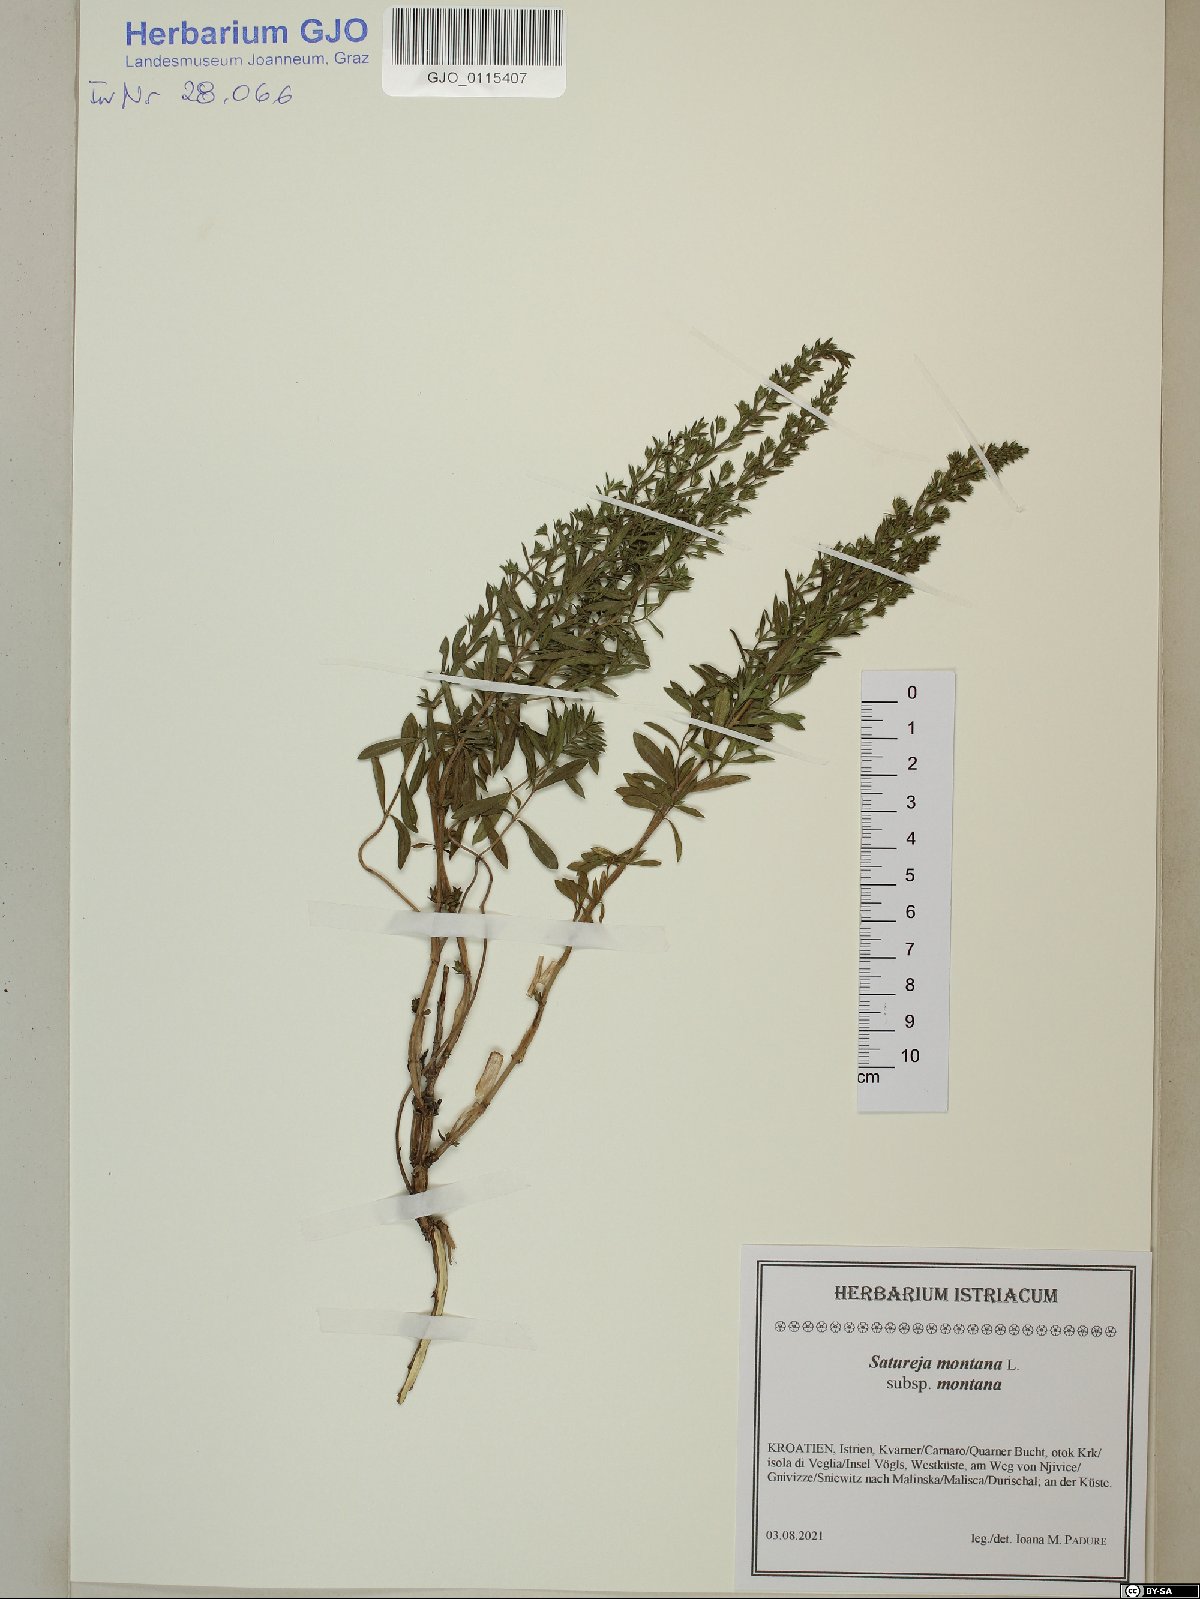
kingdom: Plantae
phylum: Tracheophyta
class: Magnoliopsida
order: Lamiales
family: Lamiaceae
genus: Satureja
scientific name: Satureja montana
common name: Winter savory
